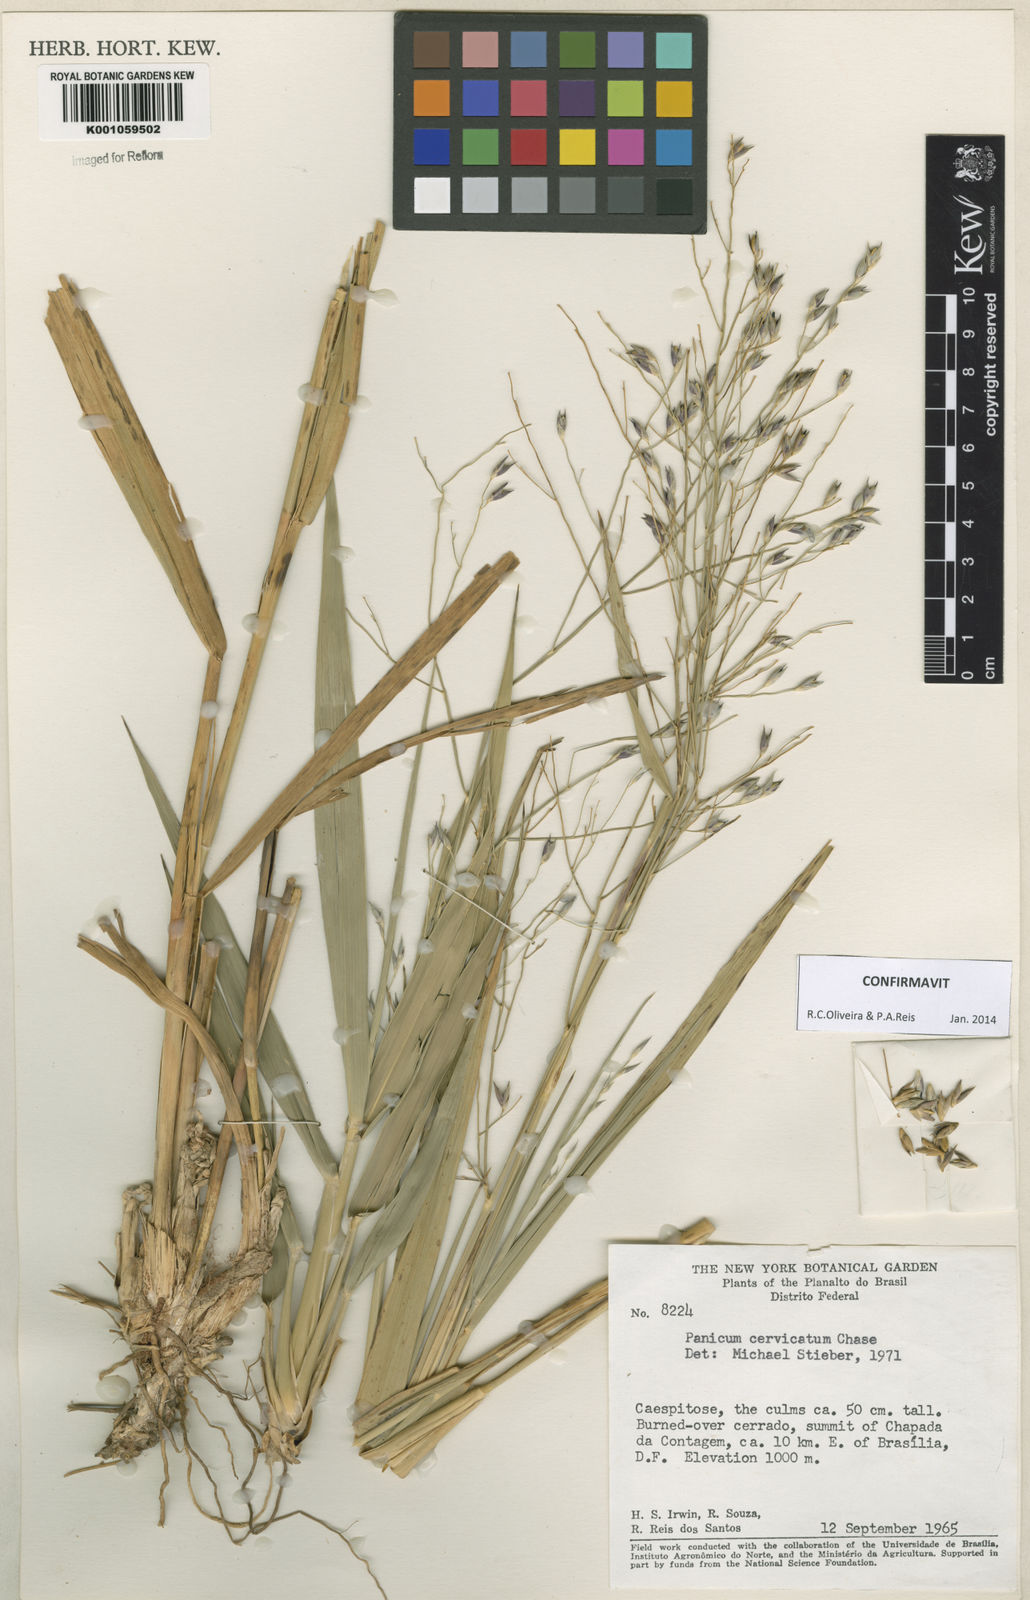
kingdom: Plantae
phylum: Tracheophyta
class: Liliopsida
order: Poales
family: Poaceae
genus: Panicum
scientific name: Panicum cervicatum
